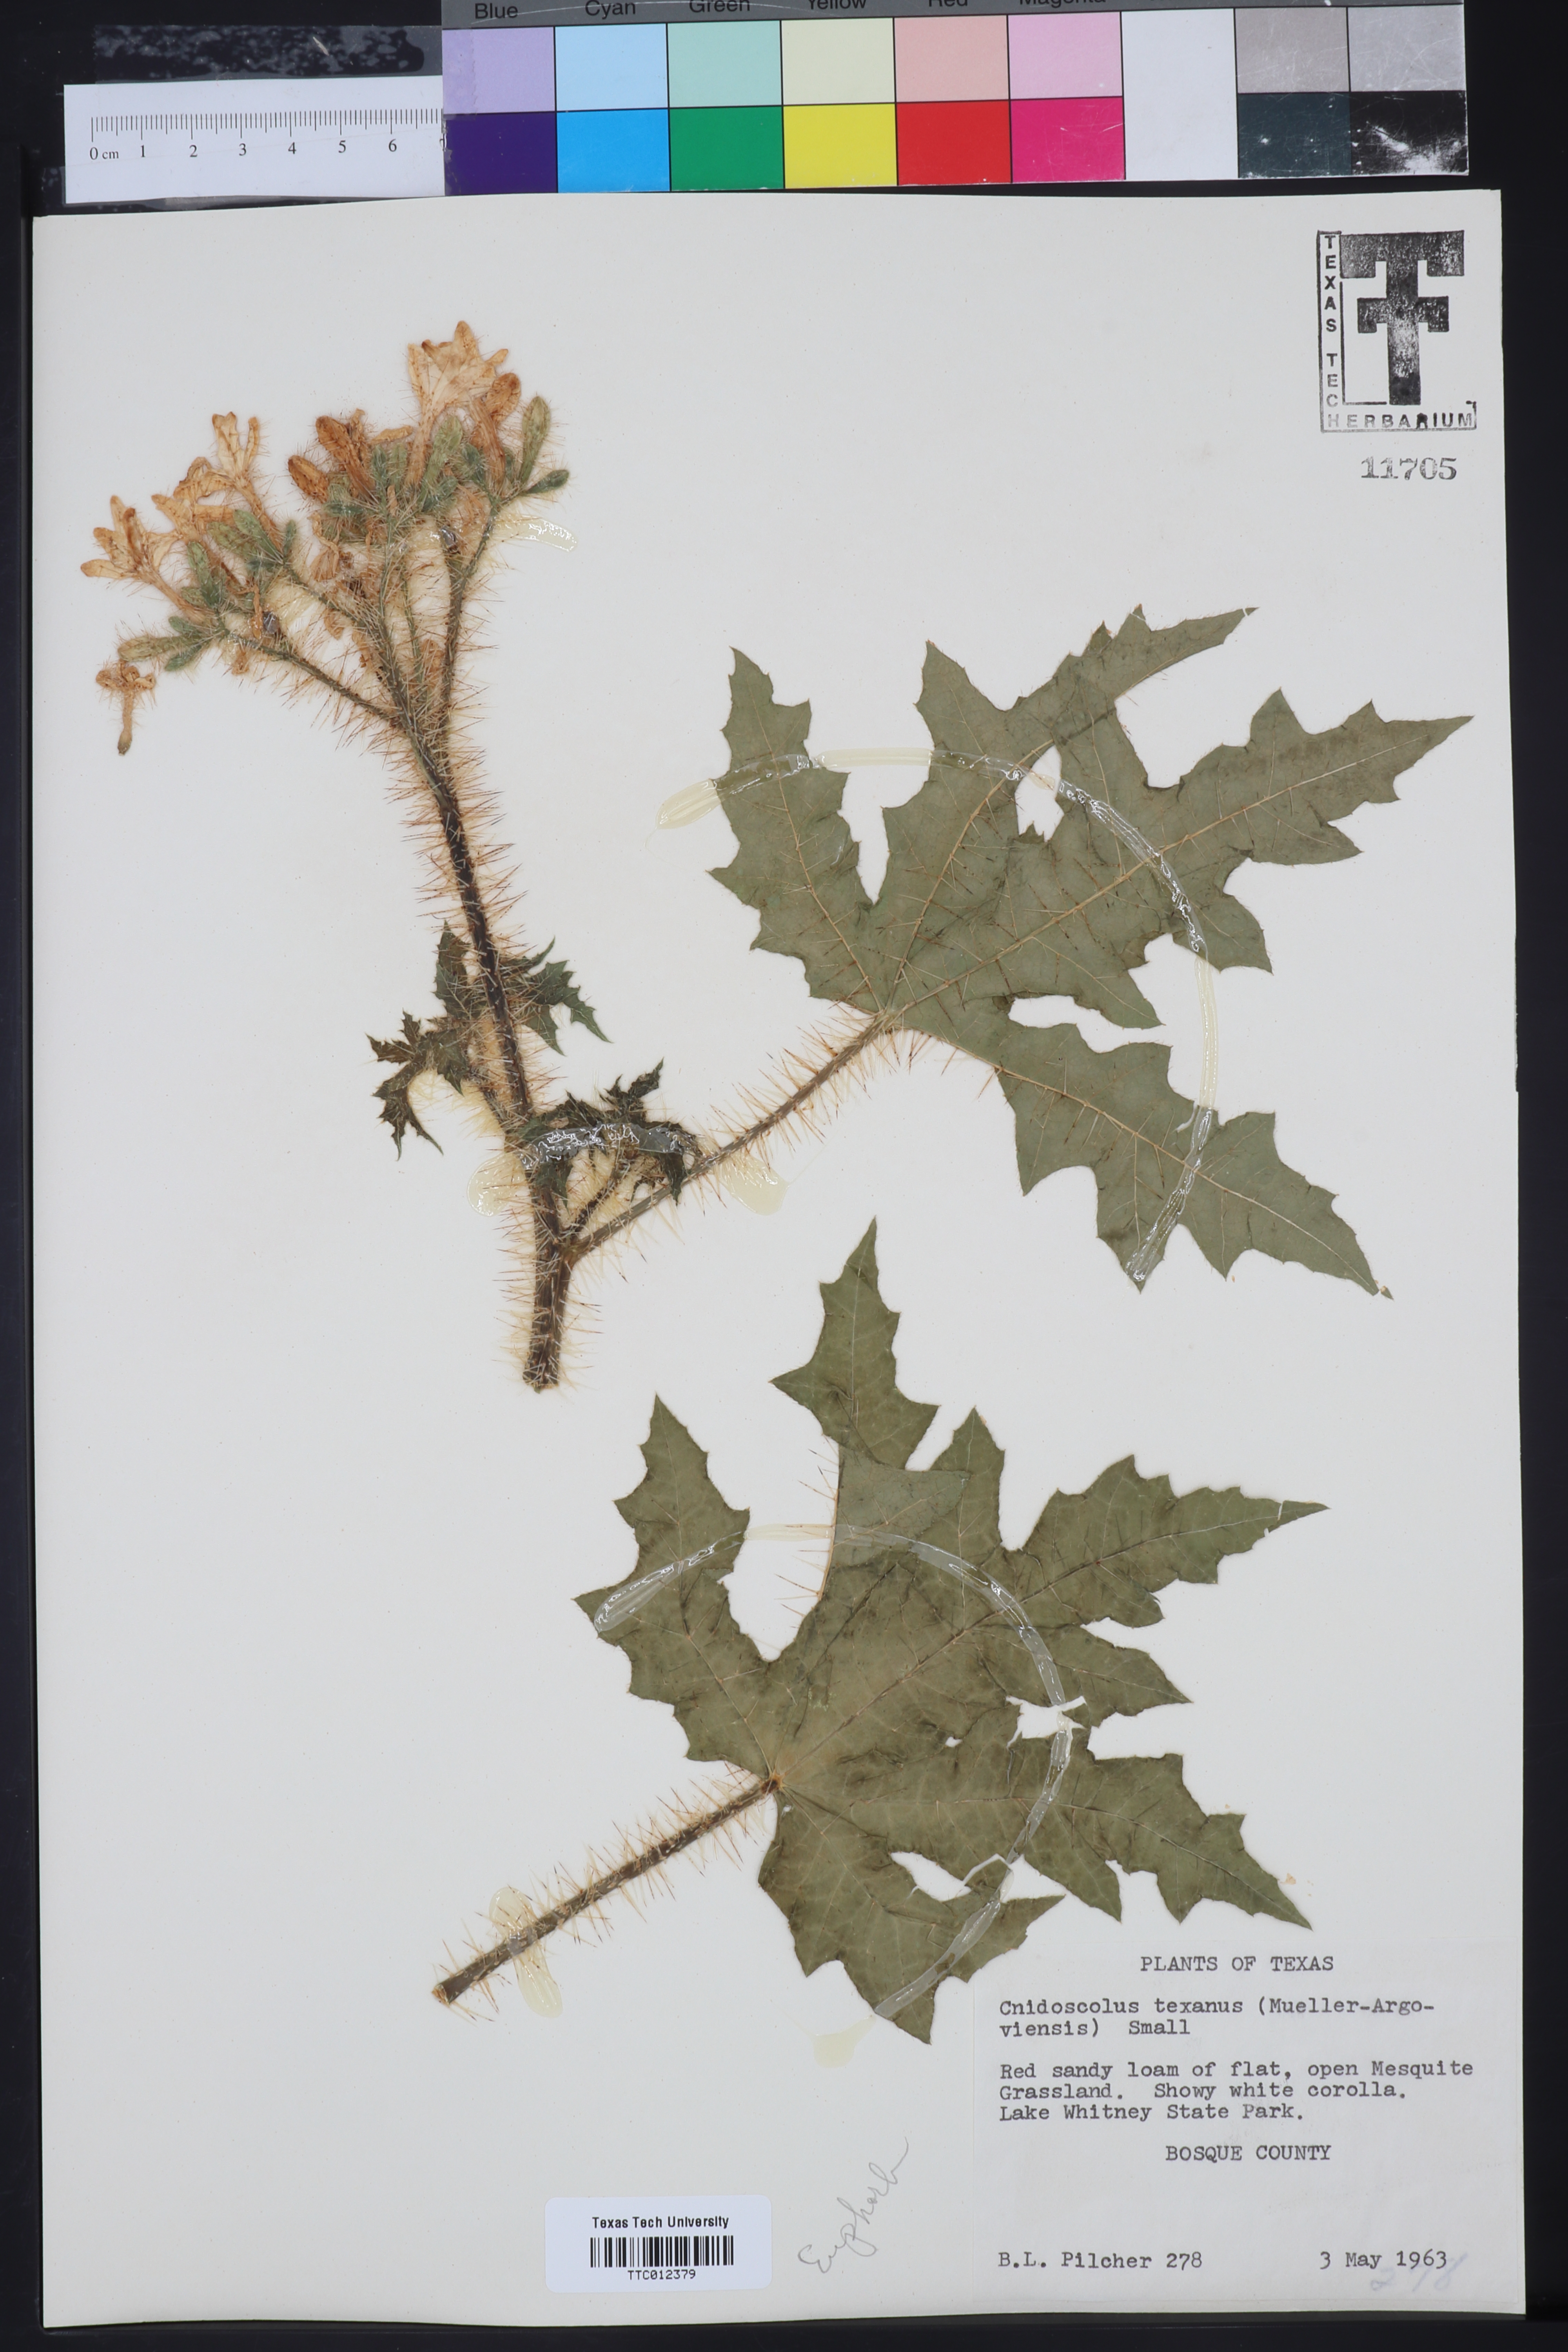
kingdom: Plantae
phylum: Tracheophyta
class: Magnoliopsida
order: Malpighiales
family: Euphorbiaceae
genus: Cnidoscolus
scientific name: Cnidoscolus texanus
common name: Texas bull-nettle
